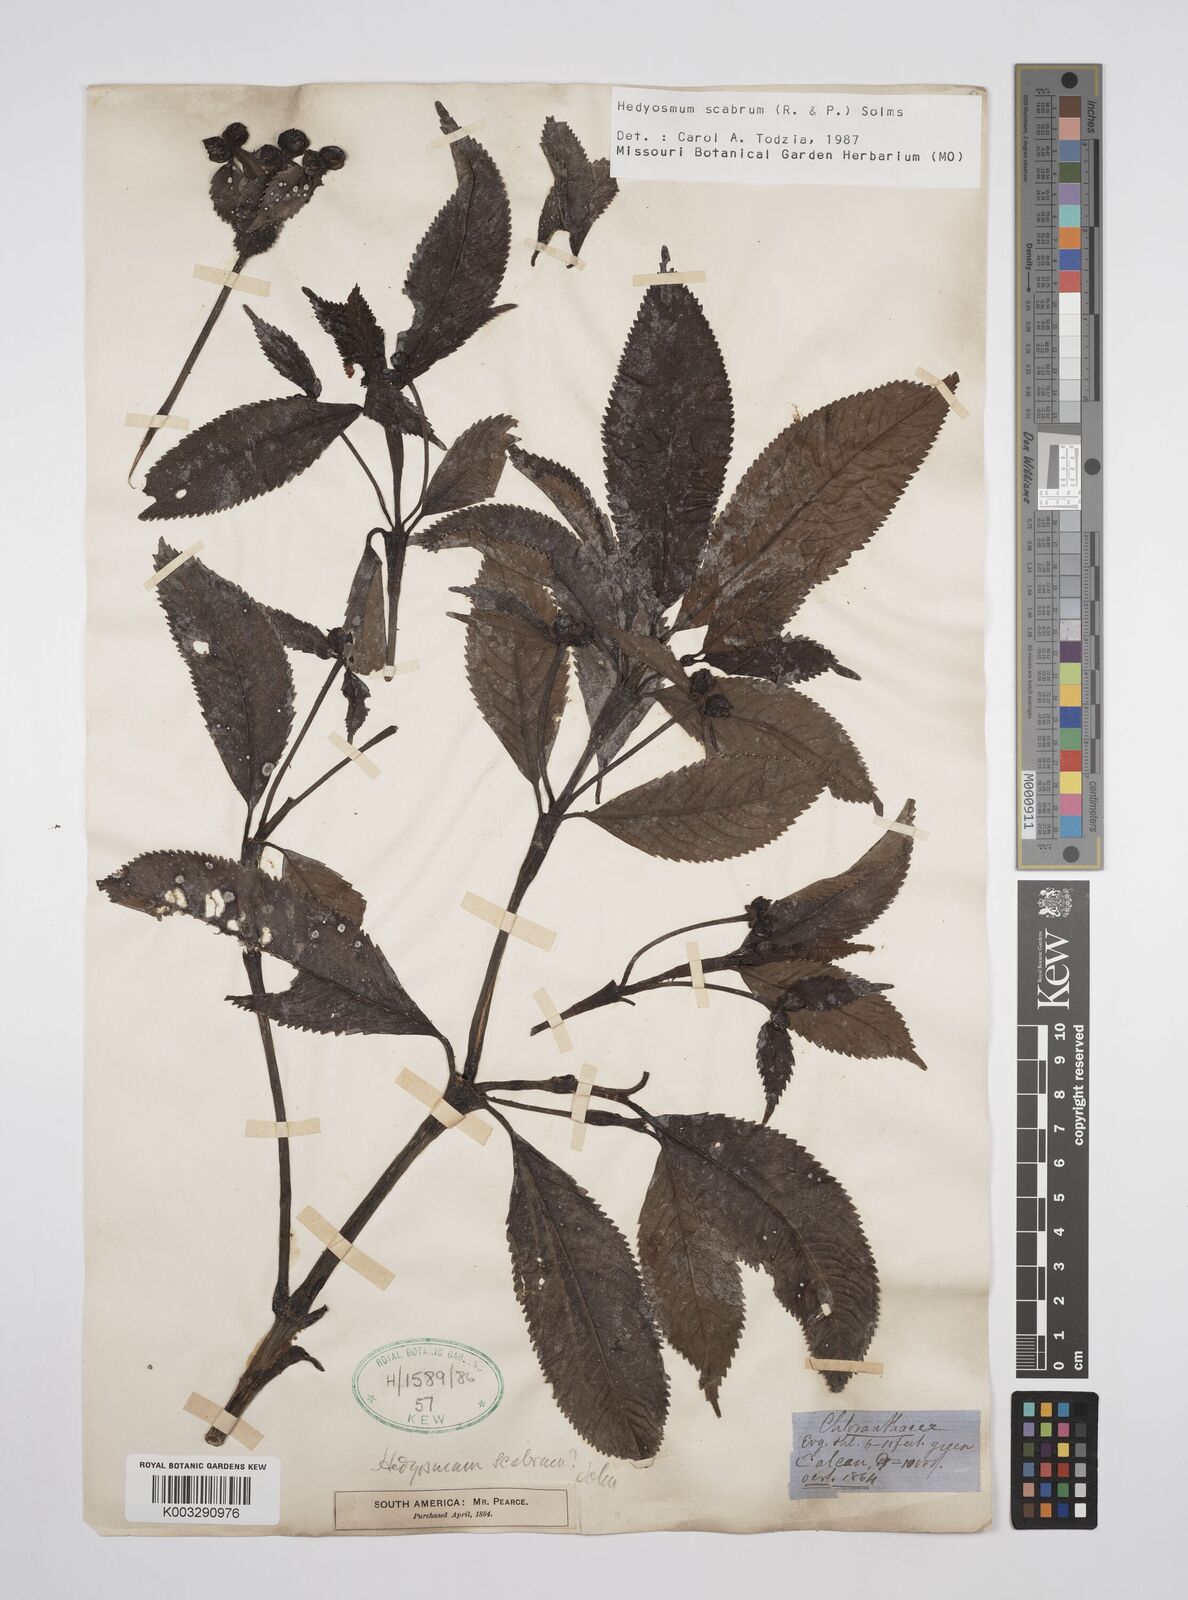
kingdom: Plantae
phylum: Tracheophyta
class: Magnoliopsida
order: Chloranthales
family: Chloranthaceae
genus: Hedyosmum
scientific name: Hedyosmum scabrum
